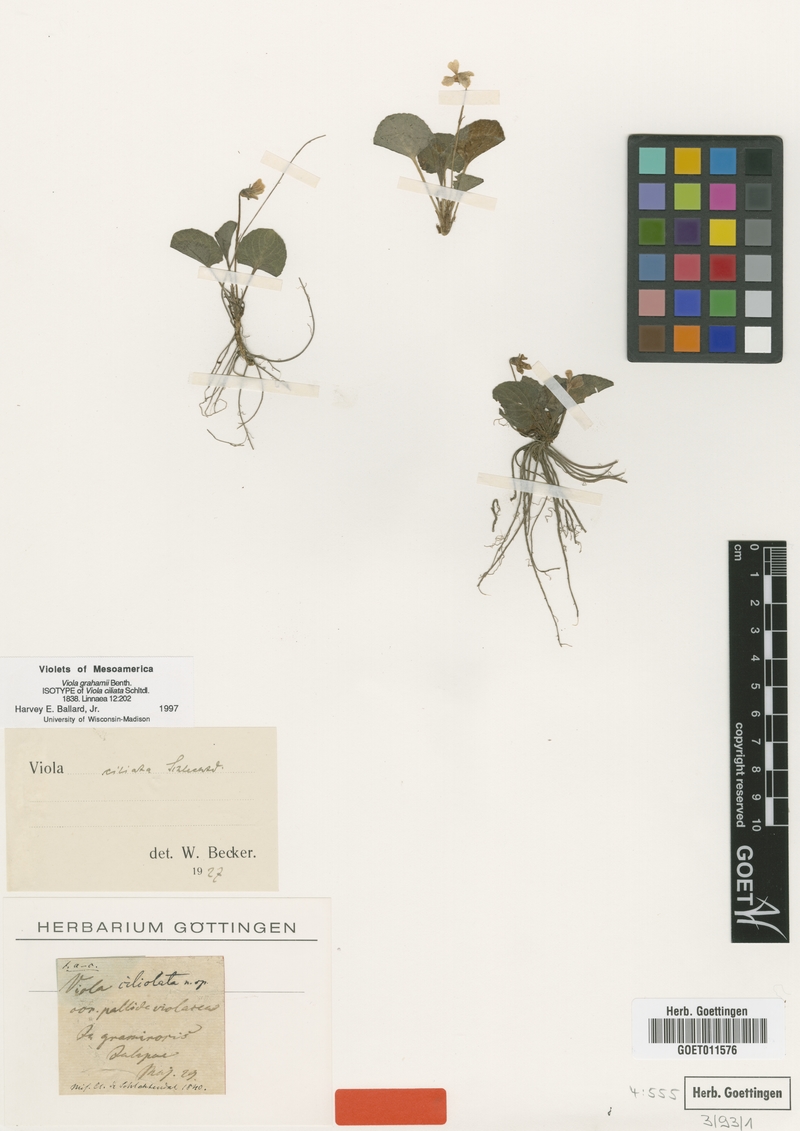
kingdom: Plantae
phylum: Tracheophyta
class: Magnoliopsida
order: Malpighiales
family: Violaceae
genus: Viola
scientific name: Viola grahamii
